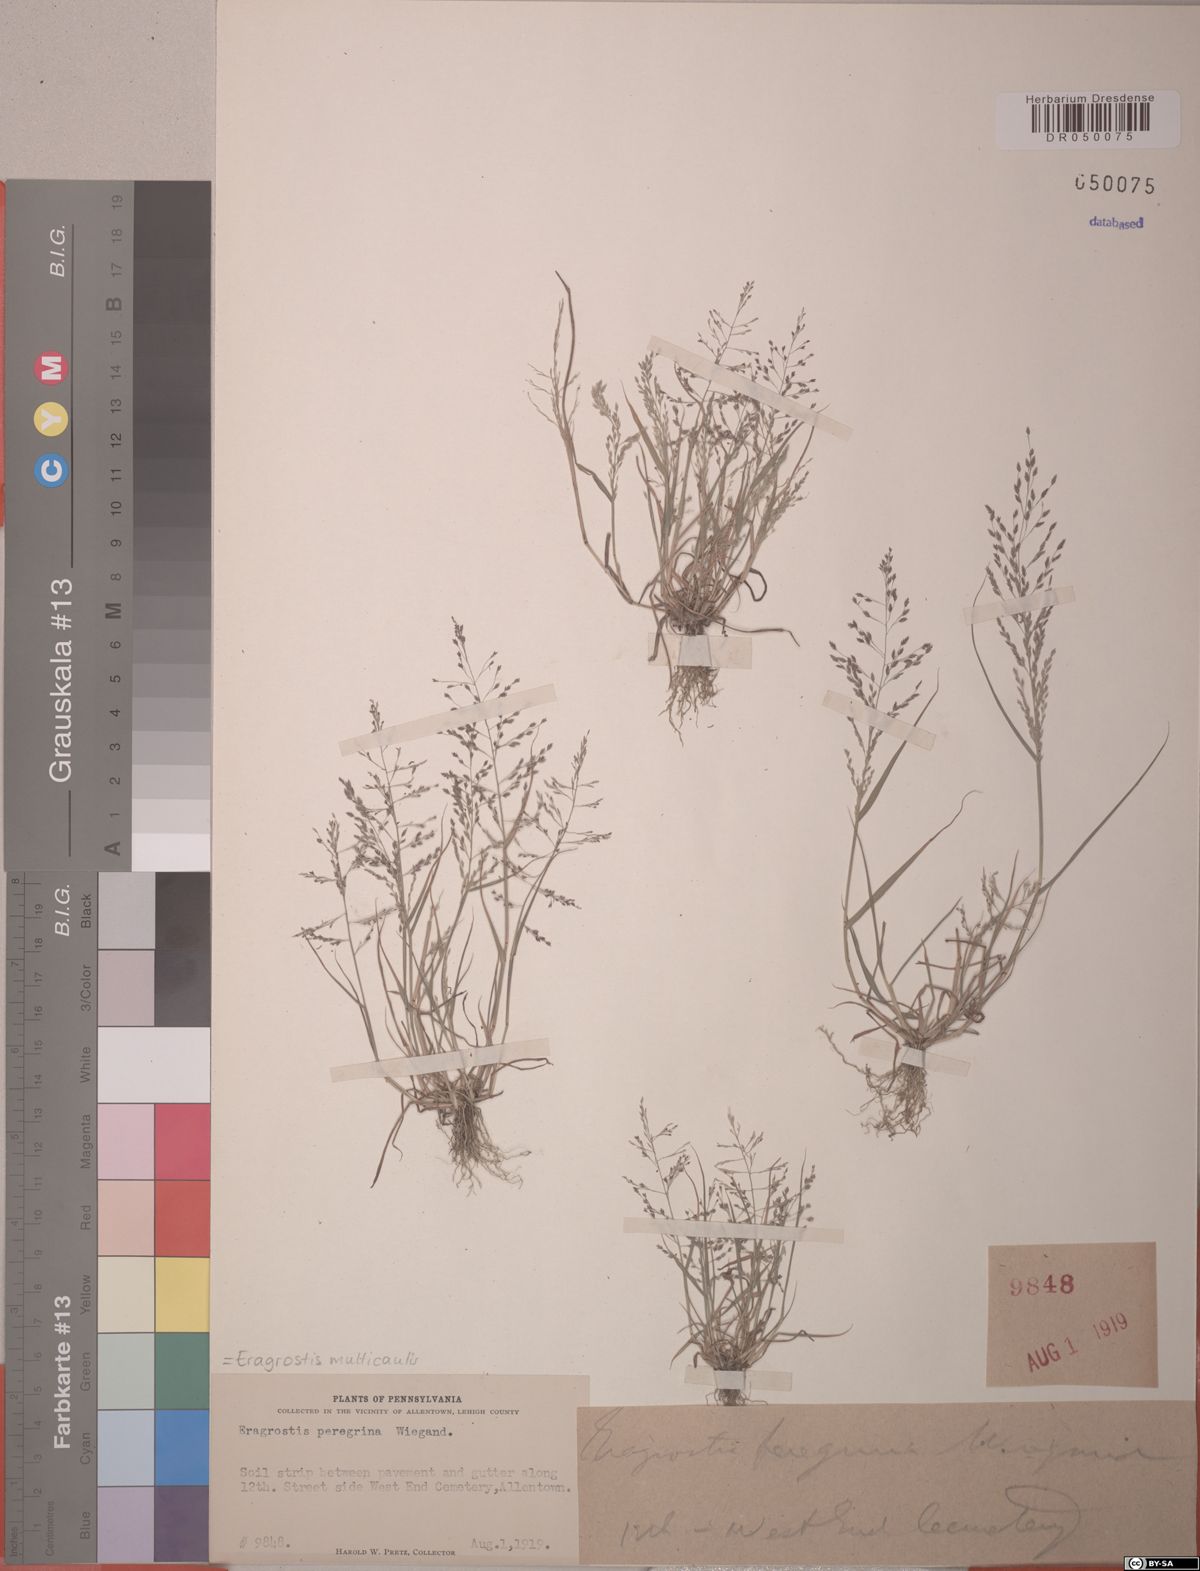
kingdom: Plantae
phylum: Tracheophyta
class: Liliopsida
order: Poales
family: Poaceae
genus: Eragrostis
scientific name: Eragrostis multicaulis
